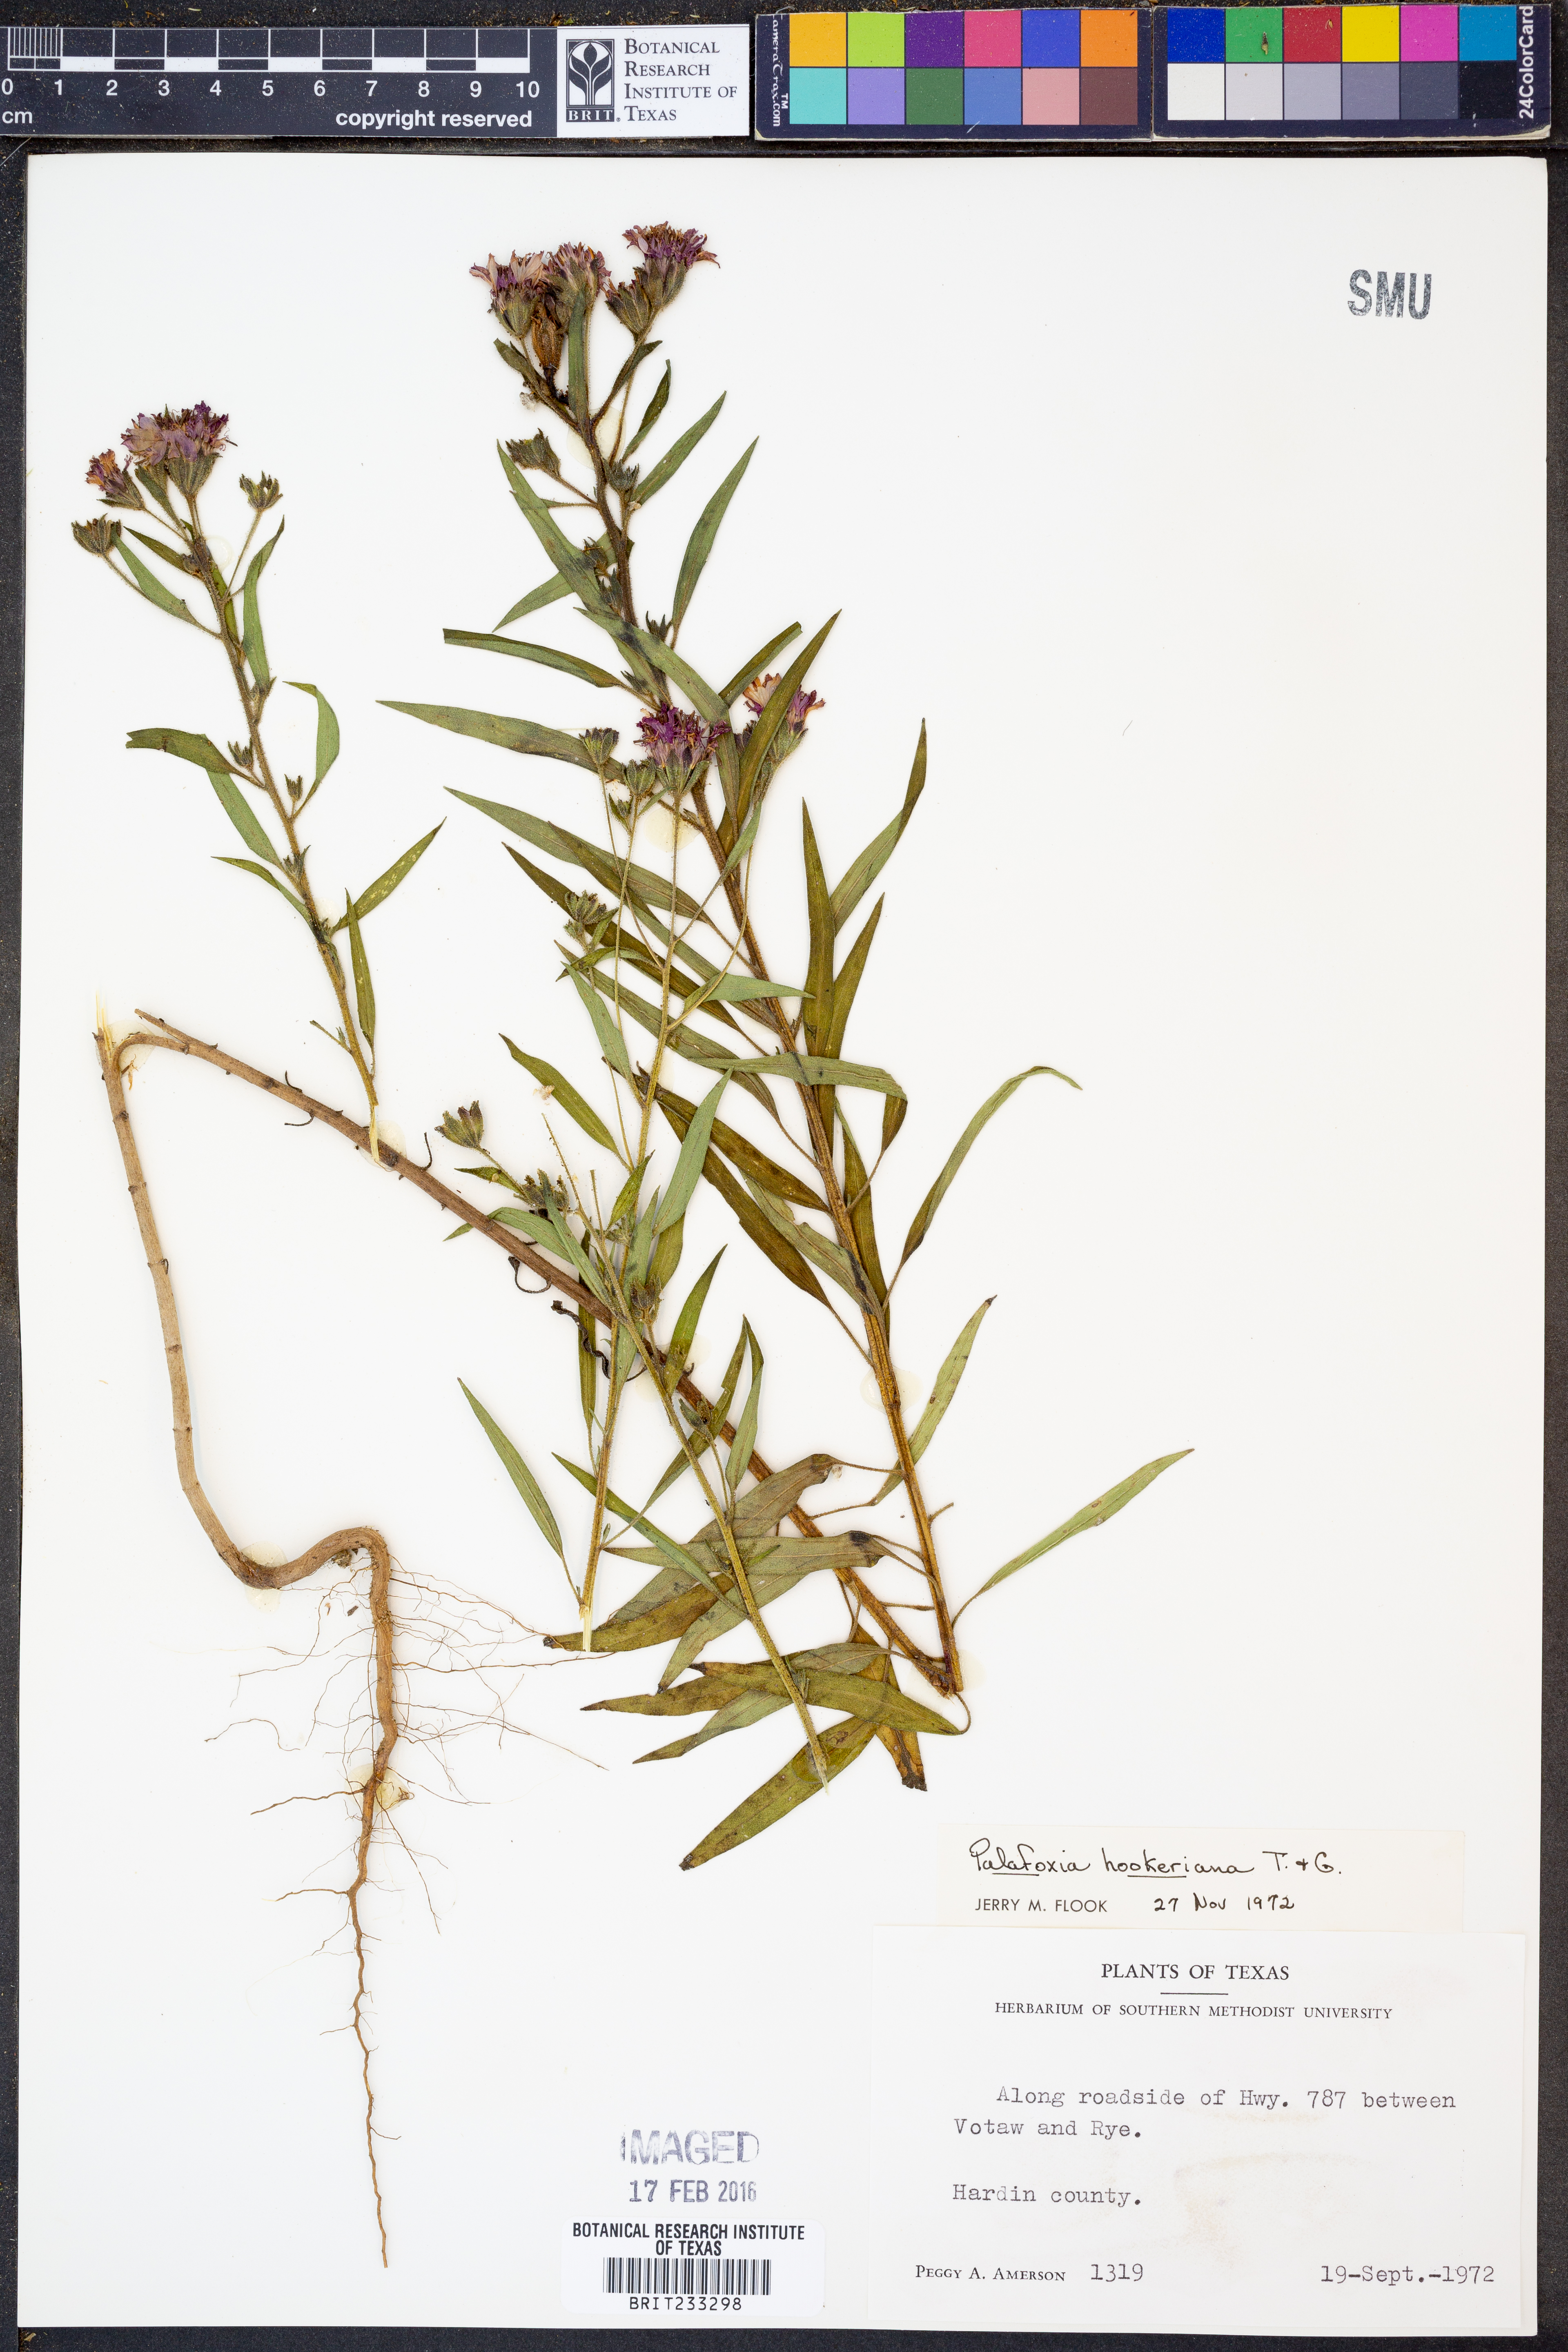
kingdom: Plantae
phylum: Tracheophyta
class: Magnoliopsida
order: Asterales
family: Asteraceae
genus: Palafoxia
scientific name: Palafoxia hookeriana
